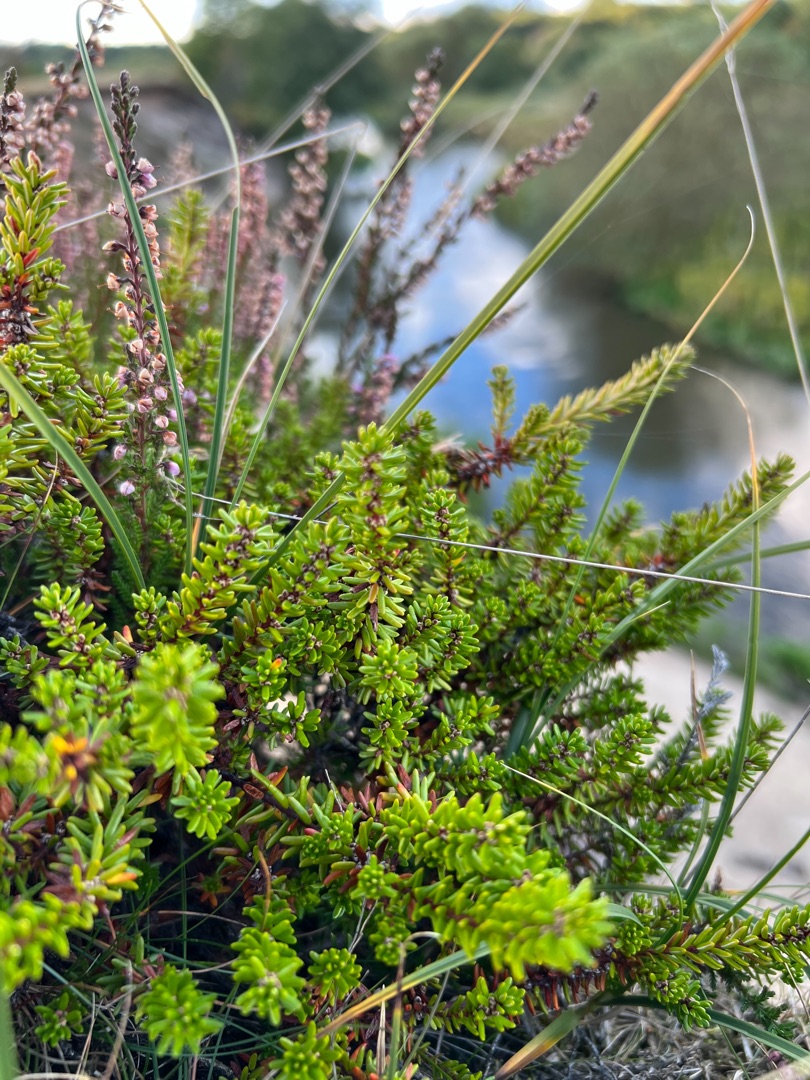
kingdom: Plantae
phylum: Tracheophyta
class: Magnoliopsida
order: Ericales
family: Ericaceae
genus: Empetrum
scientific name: Empetrum nigrum
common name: Revling
